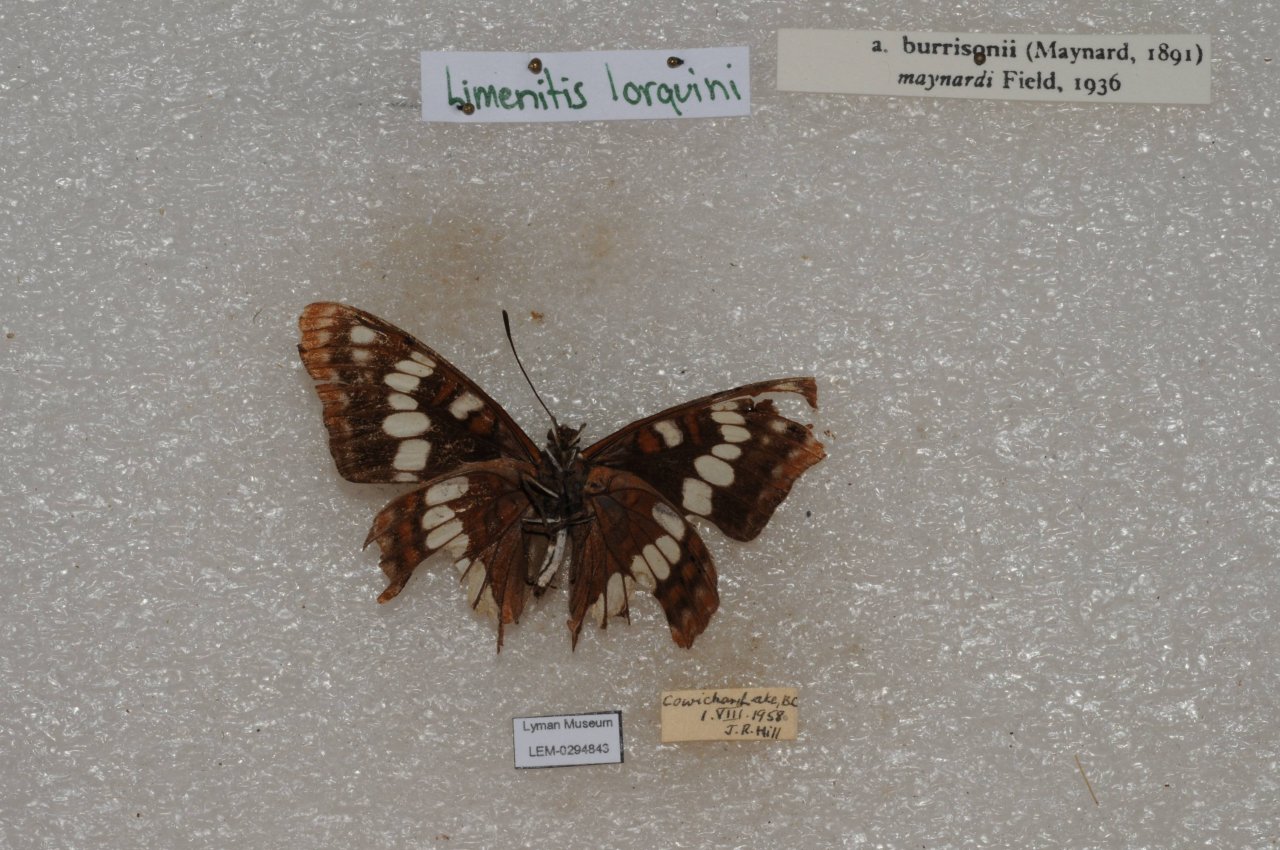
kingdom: Animalia
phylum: Arthropoda
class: Insecta
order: Lepidoptera
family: Nymphalidae
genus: Limenitis
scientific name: Limenitis lorquini
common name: Lorquin's Admiral
